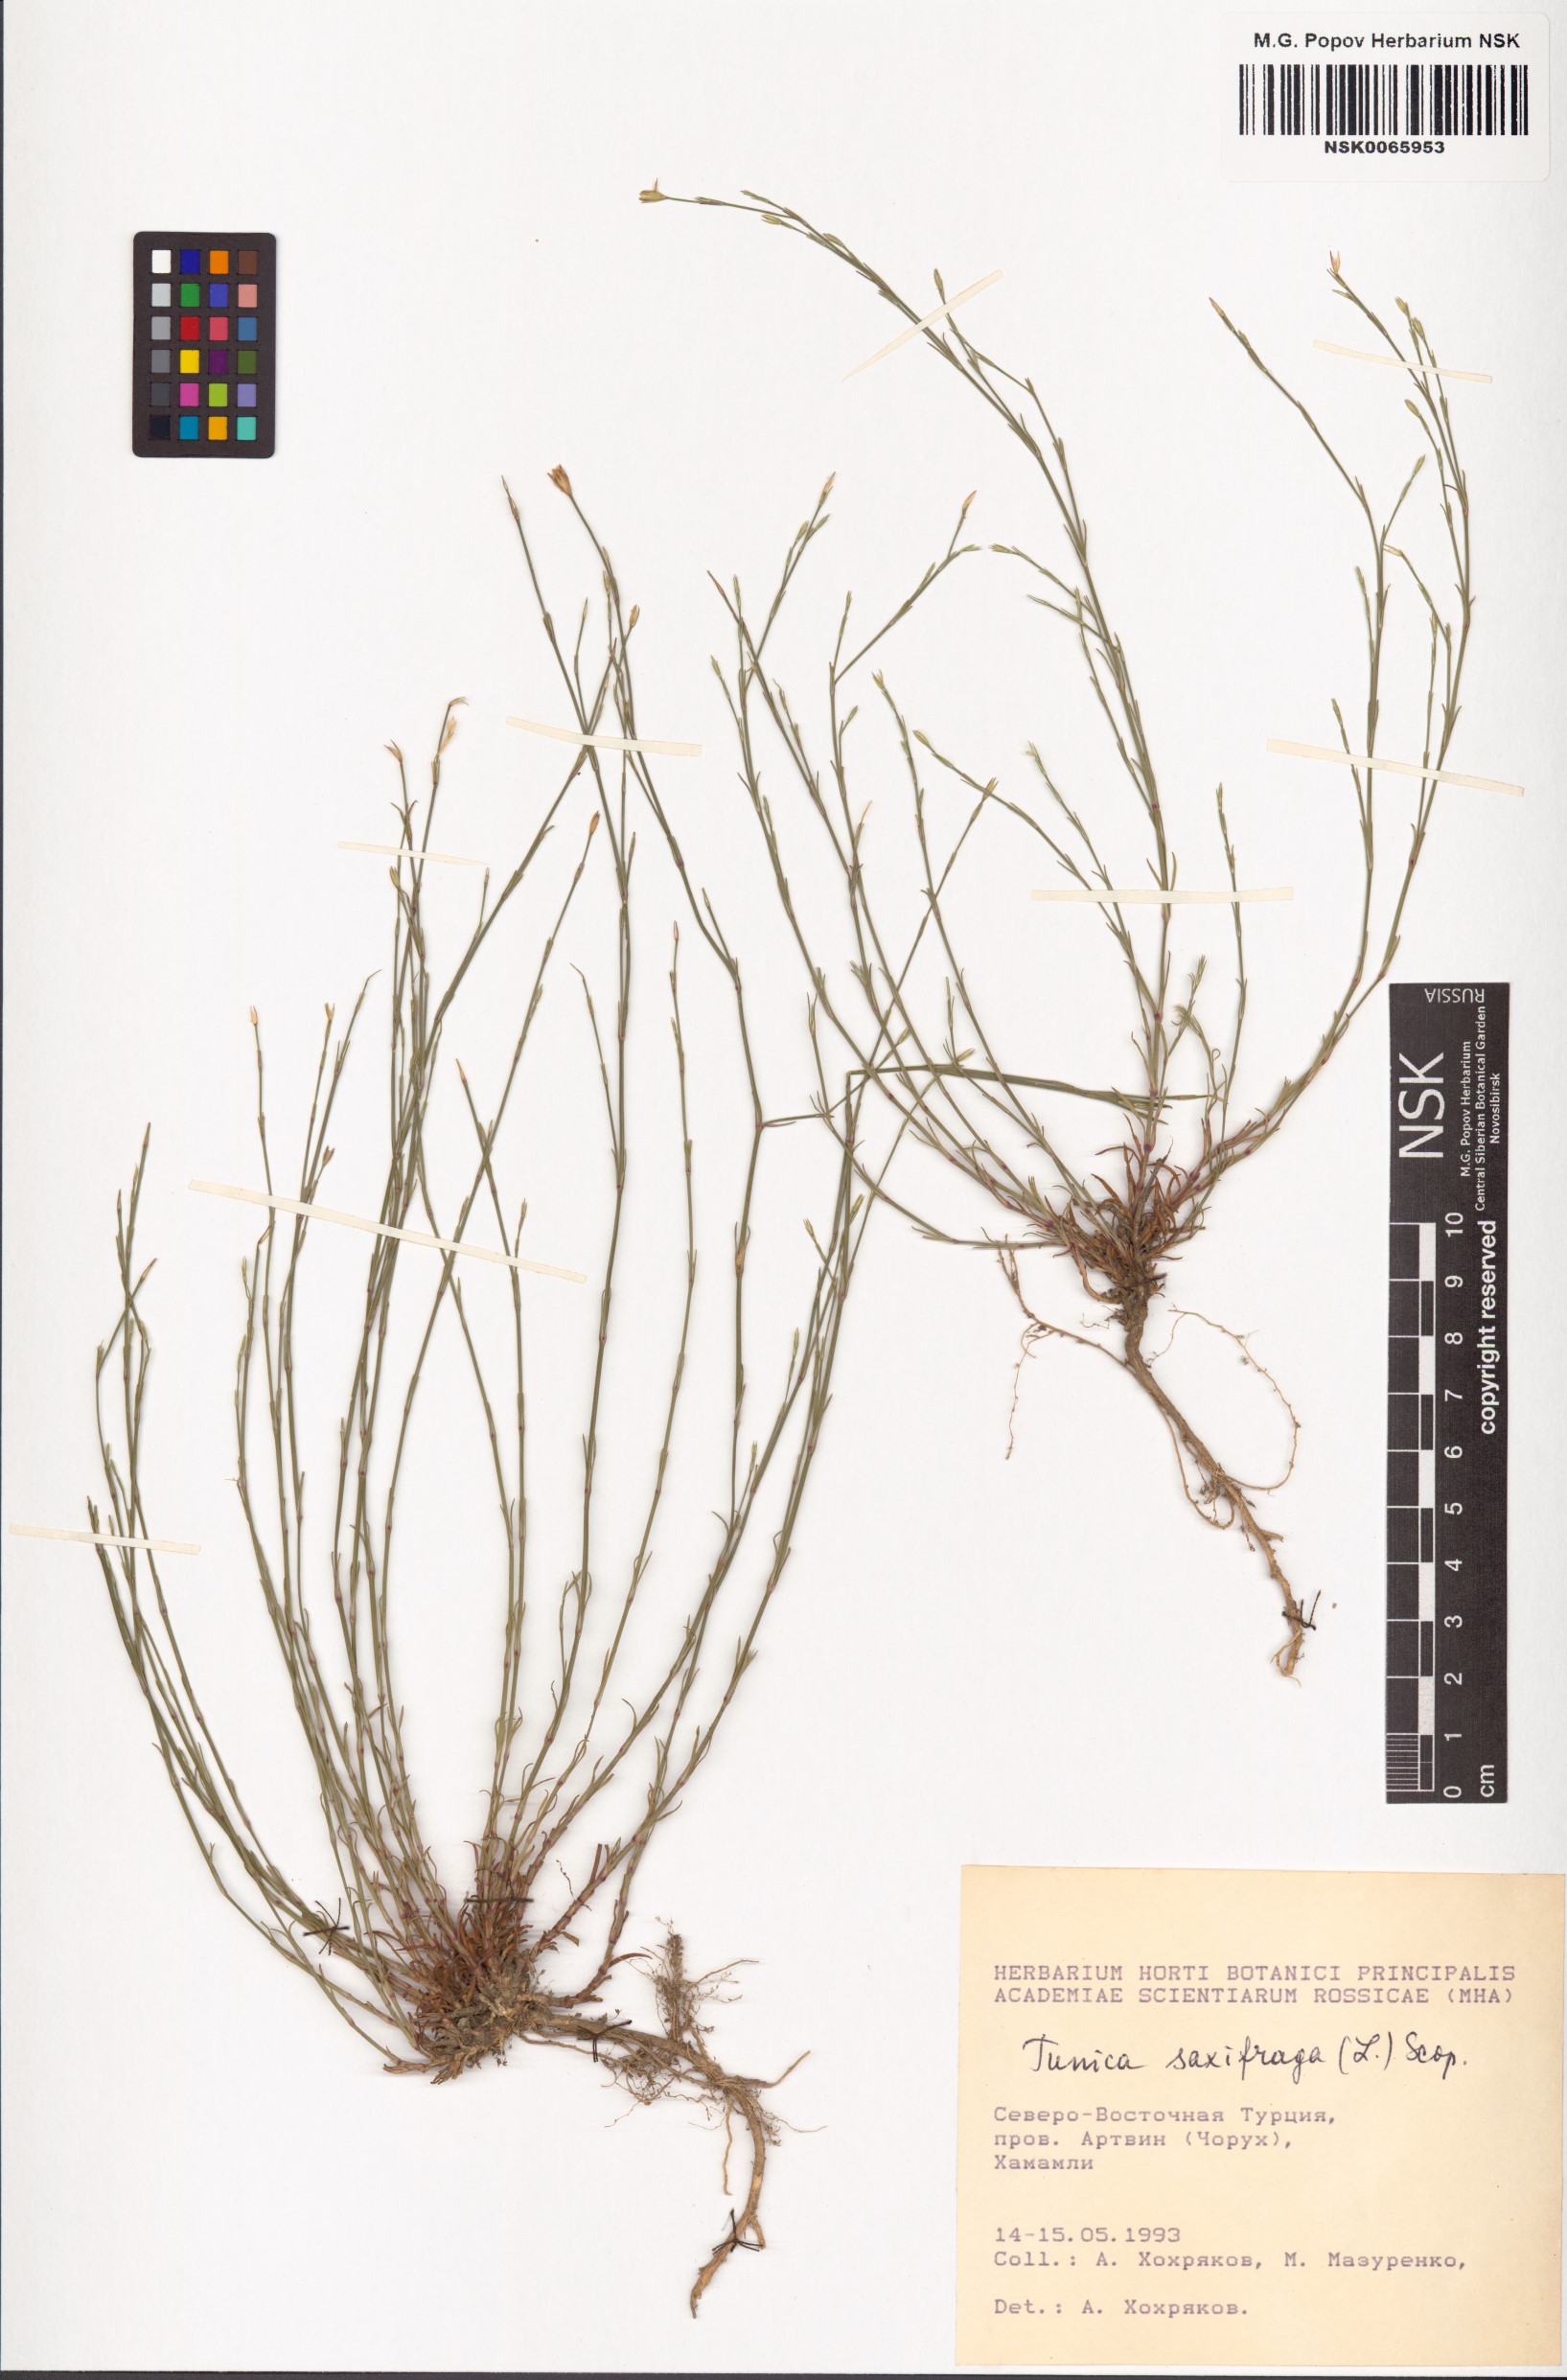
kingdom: Plantae
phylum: Tracheophyta
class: Magnoliopsida
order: Caryophyllales
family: Caryophyllaceae
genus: Petrorhagia
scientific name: Petrorhagia saxifraga
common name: Tunicflower
